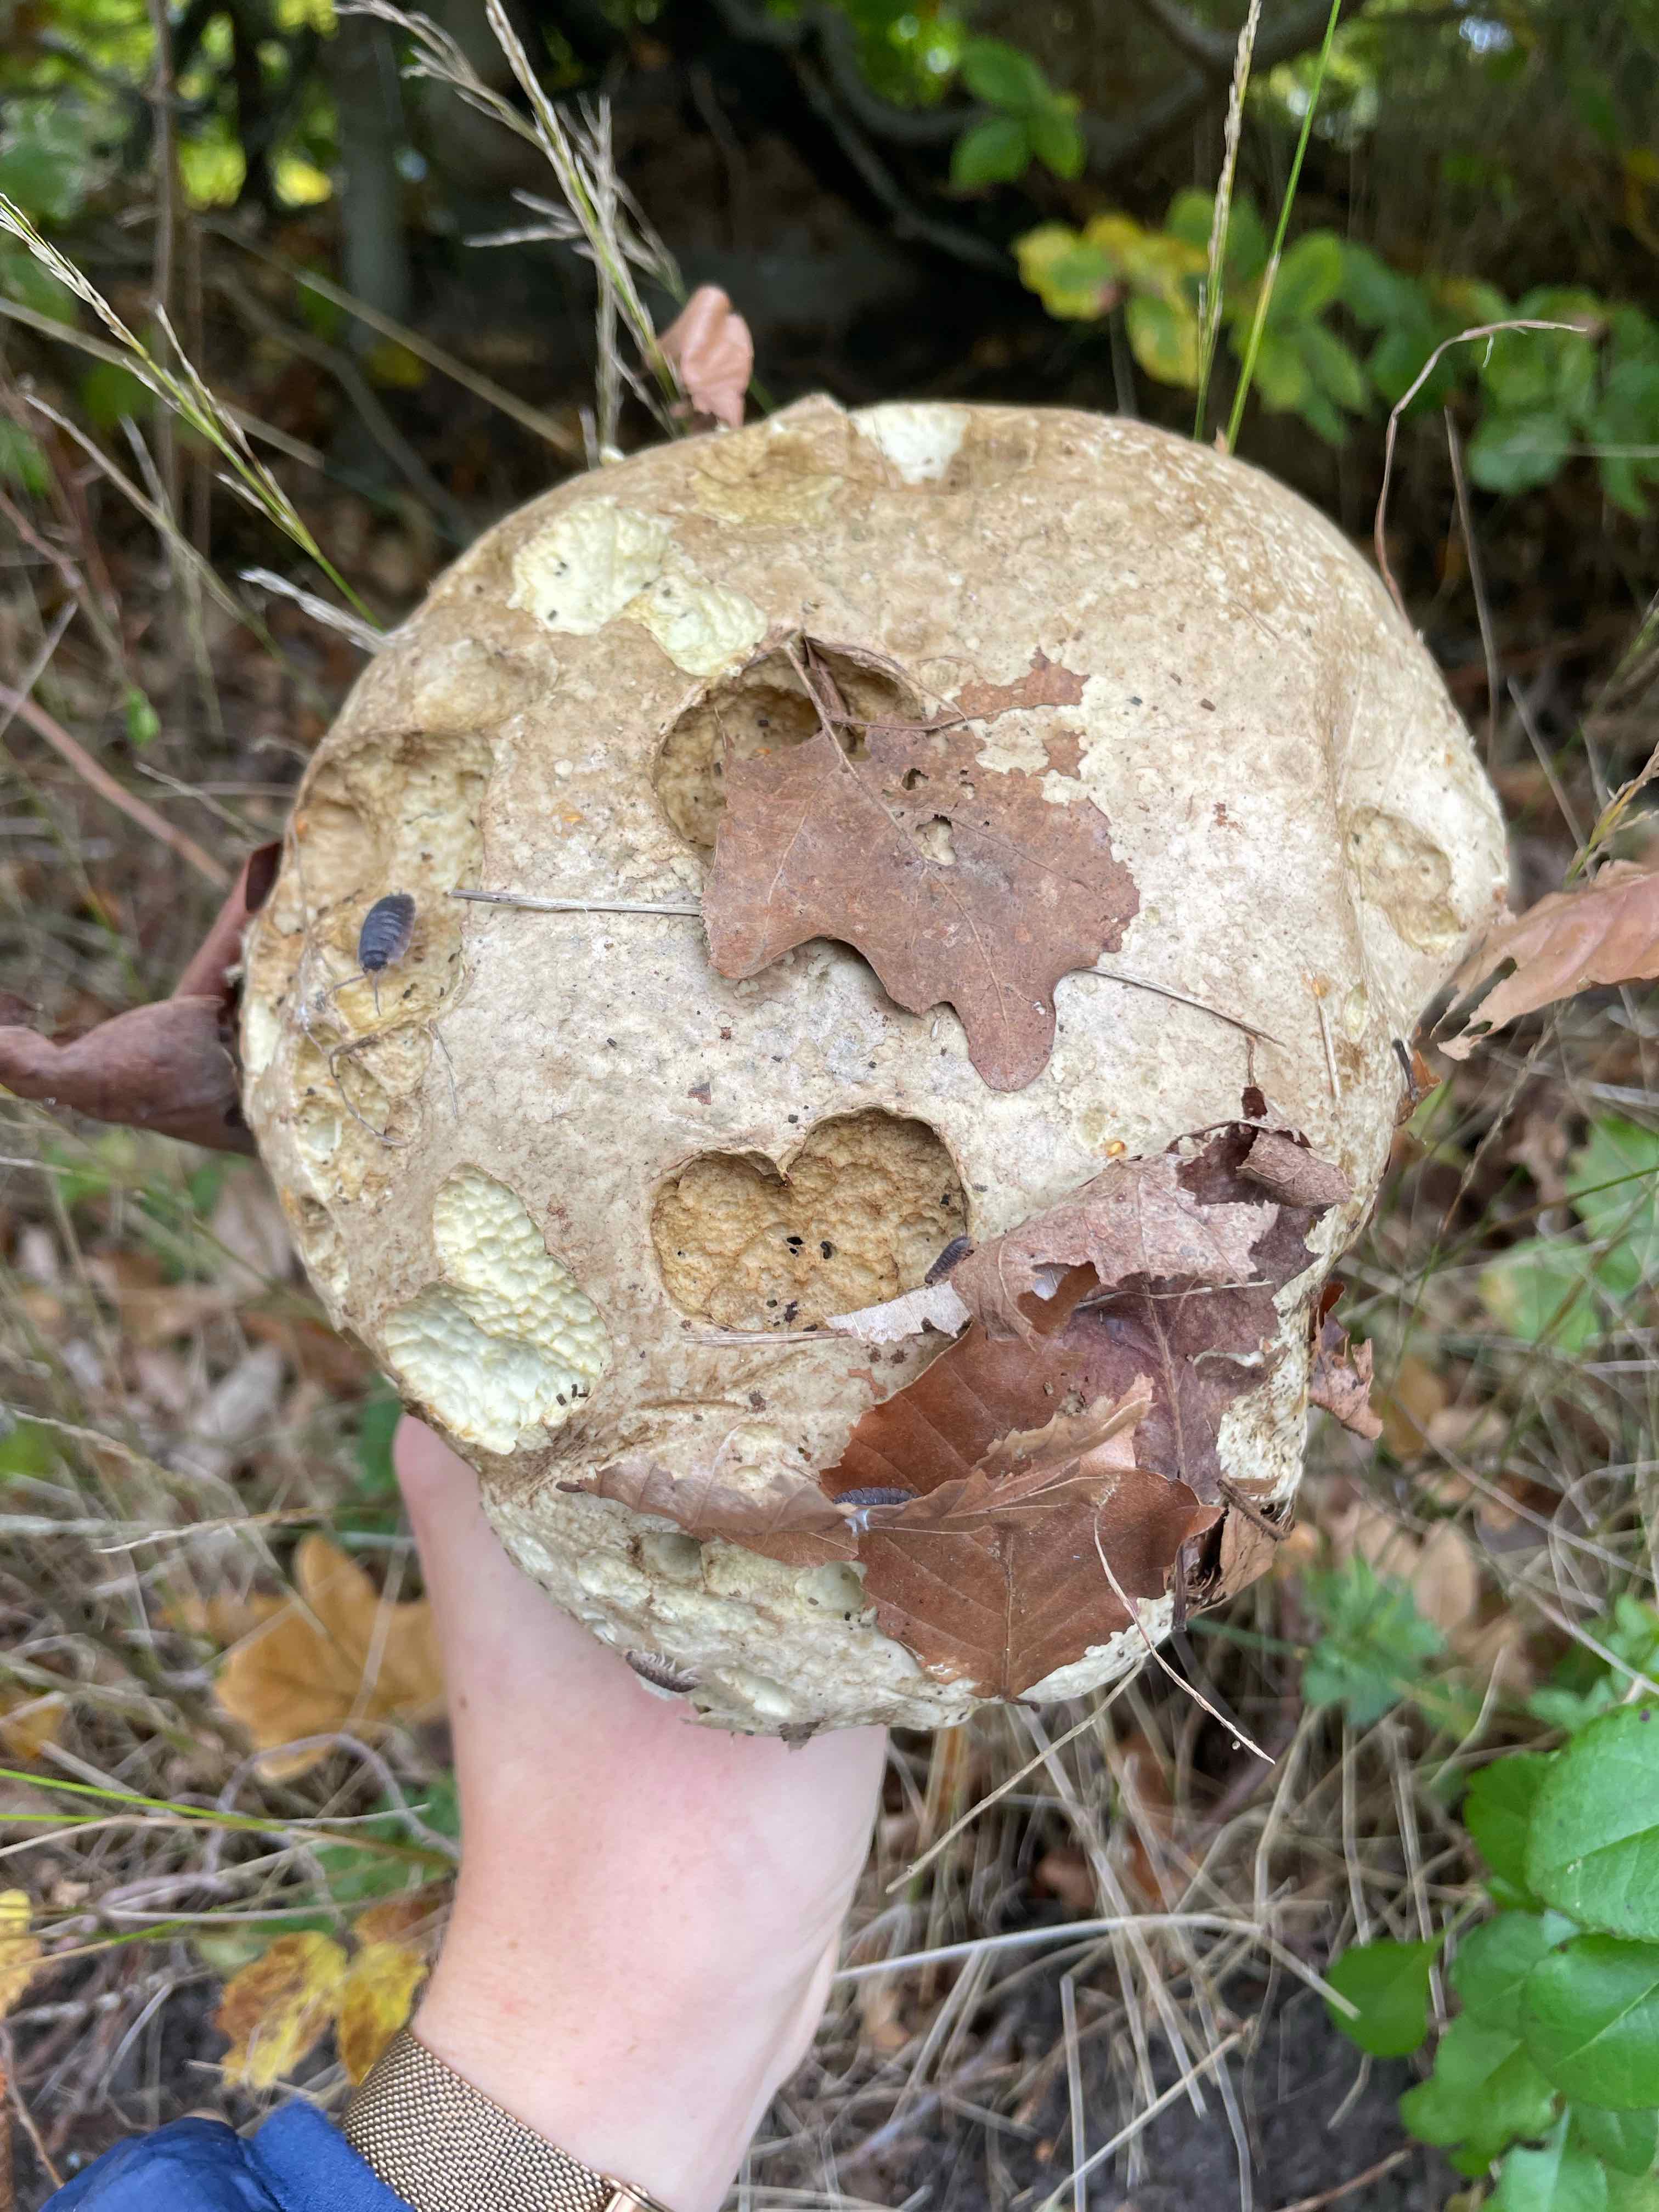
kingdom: Fungi
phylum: Basidiomycota
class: Agaricomycetes
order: Boletales
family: Boletaceae
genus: Caloboletus
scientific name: Caloboletus radicans
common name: rod-rørhat
